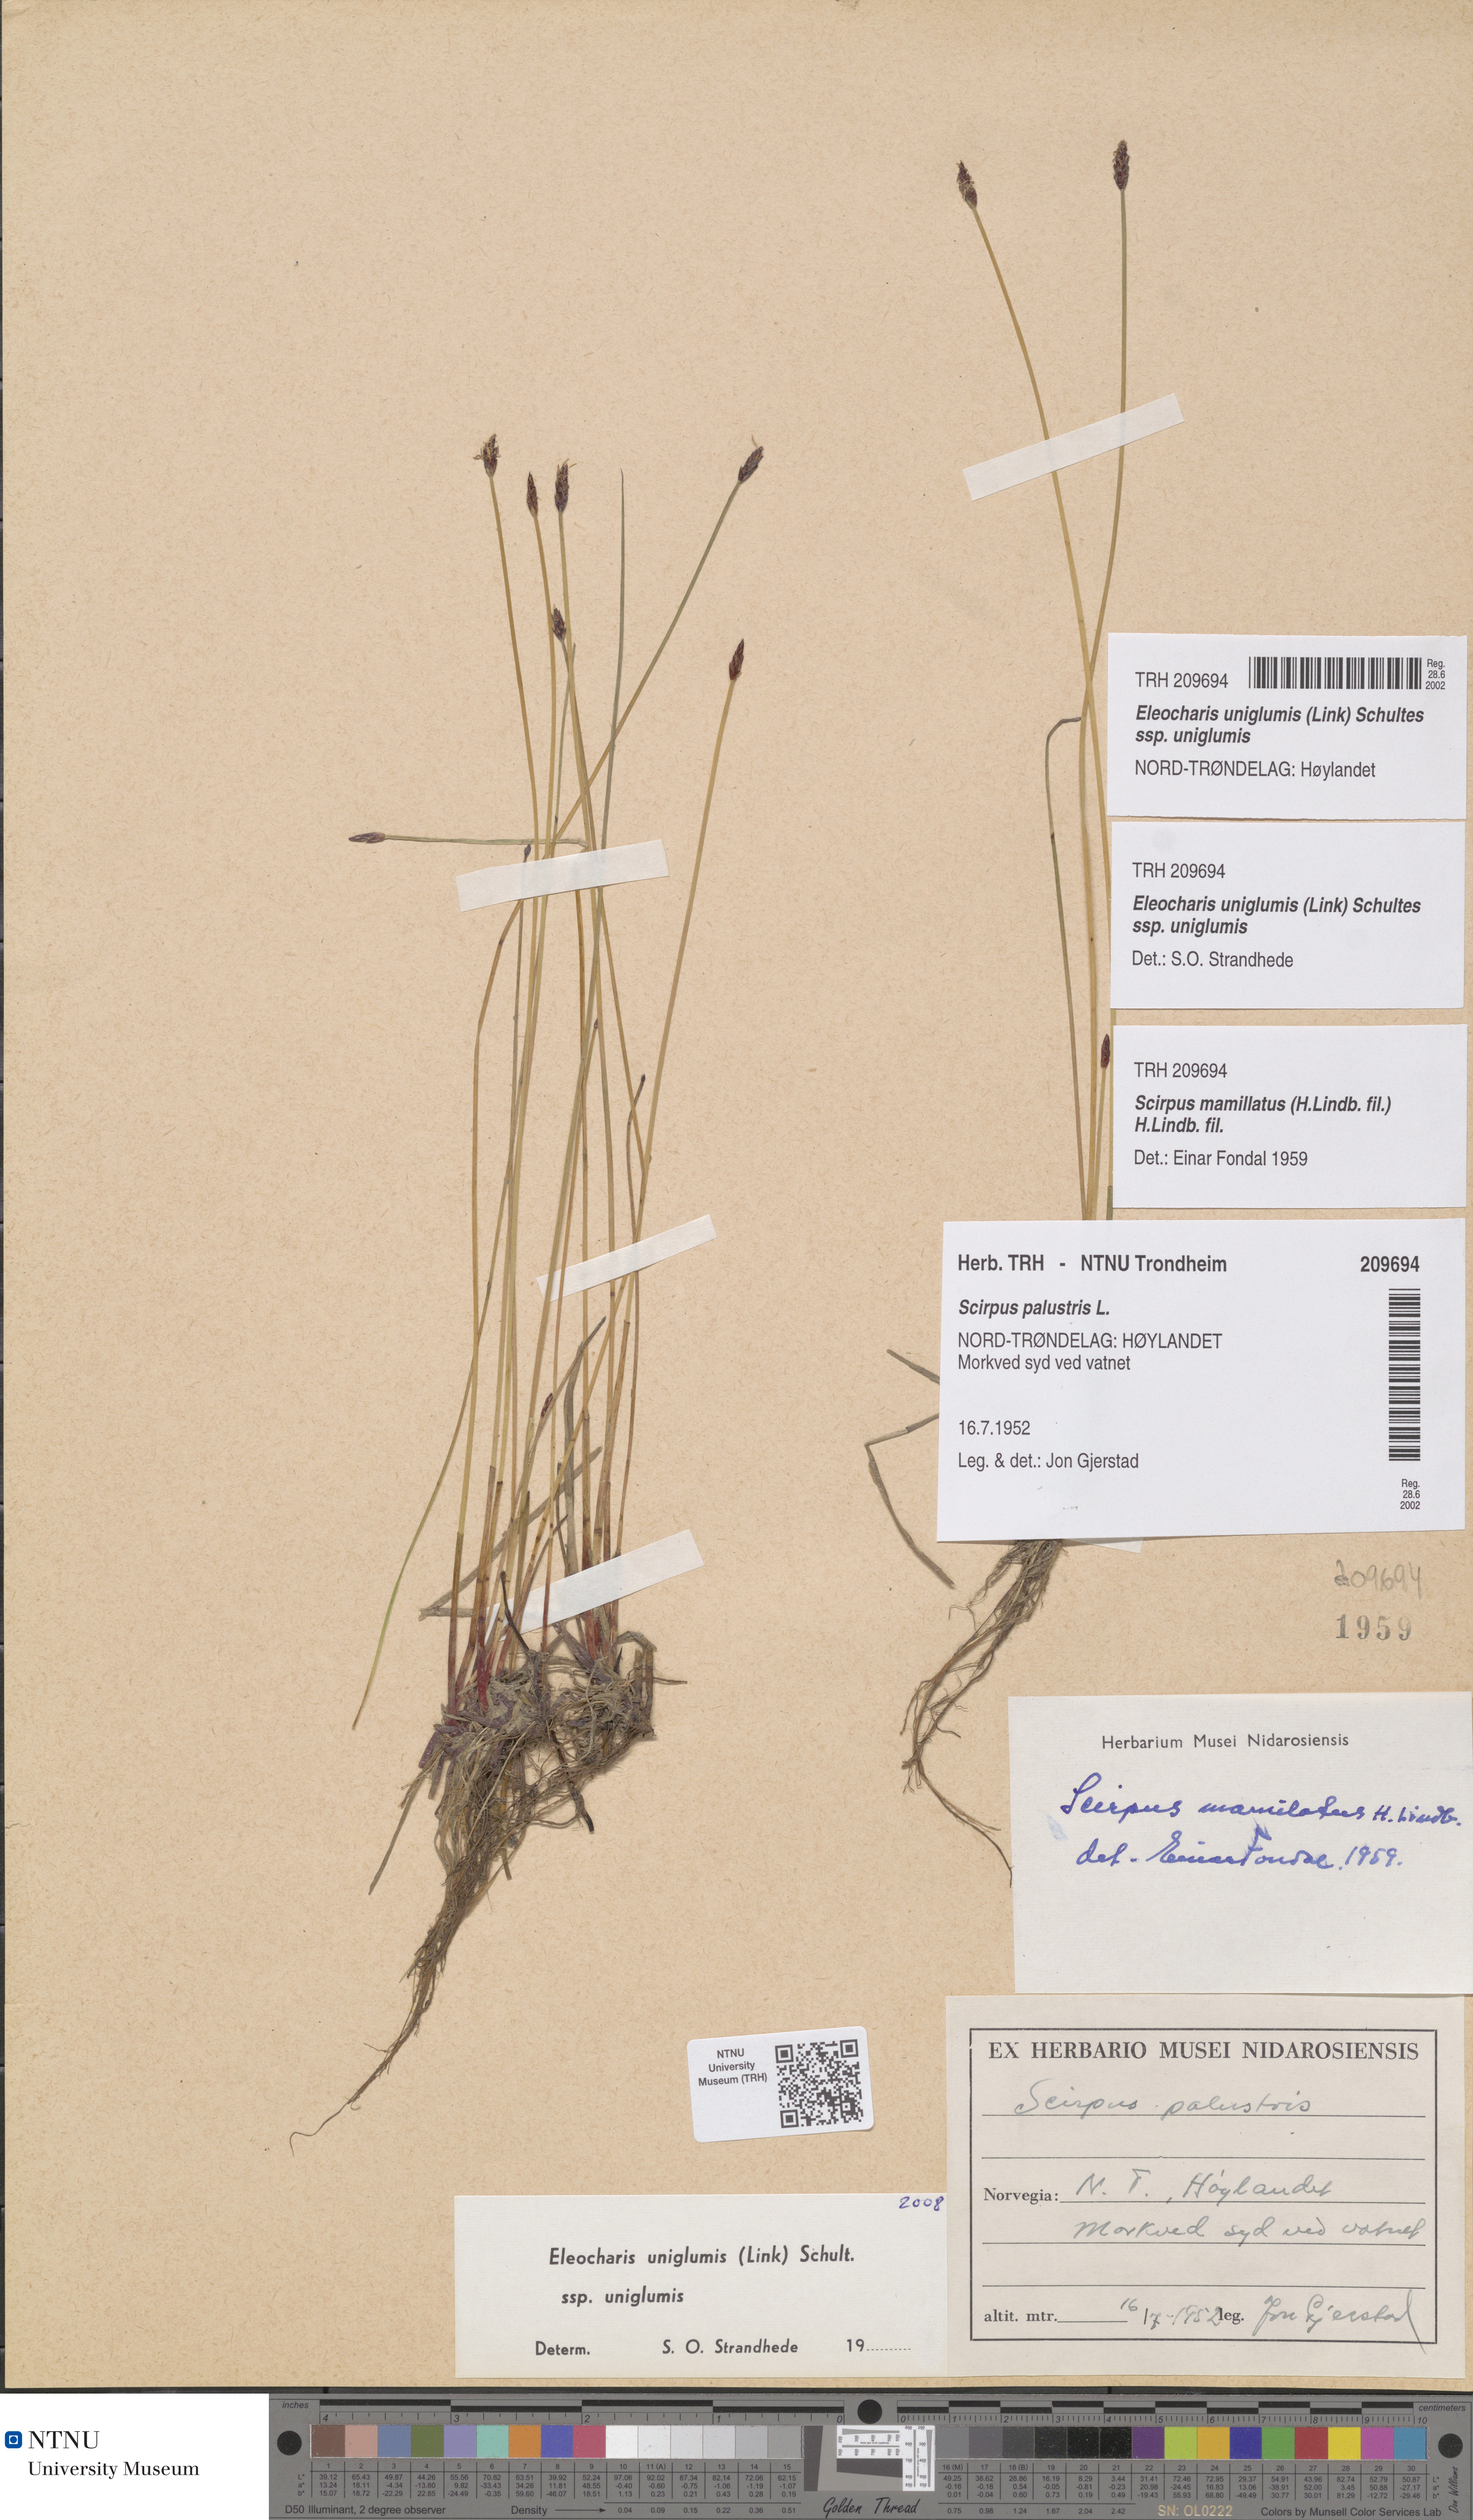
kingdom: Plantae
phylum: Tracheophyta
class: Liliopsida
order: Poales
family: Cyperaceae
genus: Eleocharis
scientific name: Eleocharis uniglumis
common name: Slender spike-rush
